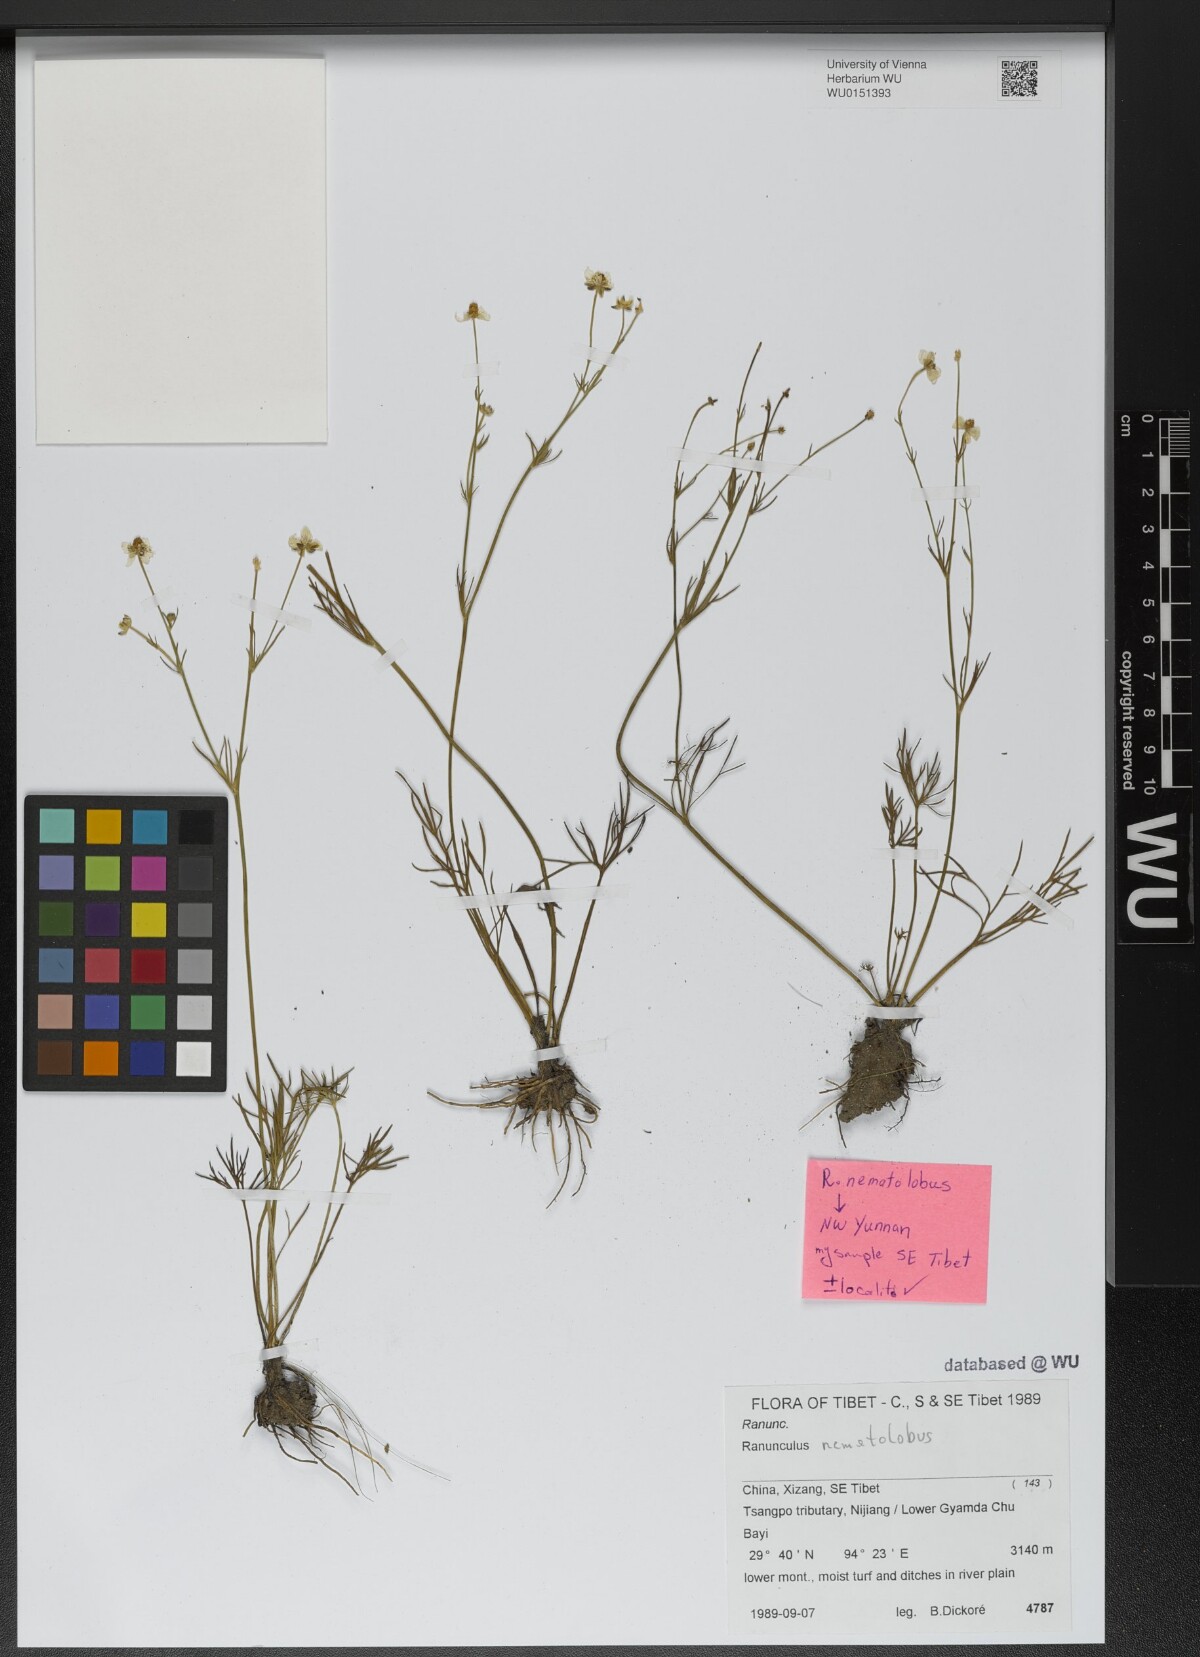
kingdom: Plantae
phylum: Tracheophyta
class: Magnoliopsida
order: Ranunculales
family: Ranunculaceae
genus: Ranunculus
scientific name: Ranunculus nematolobus
